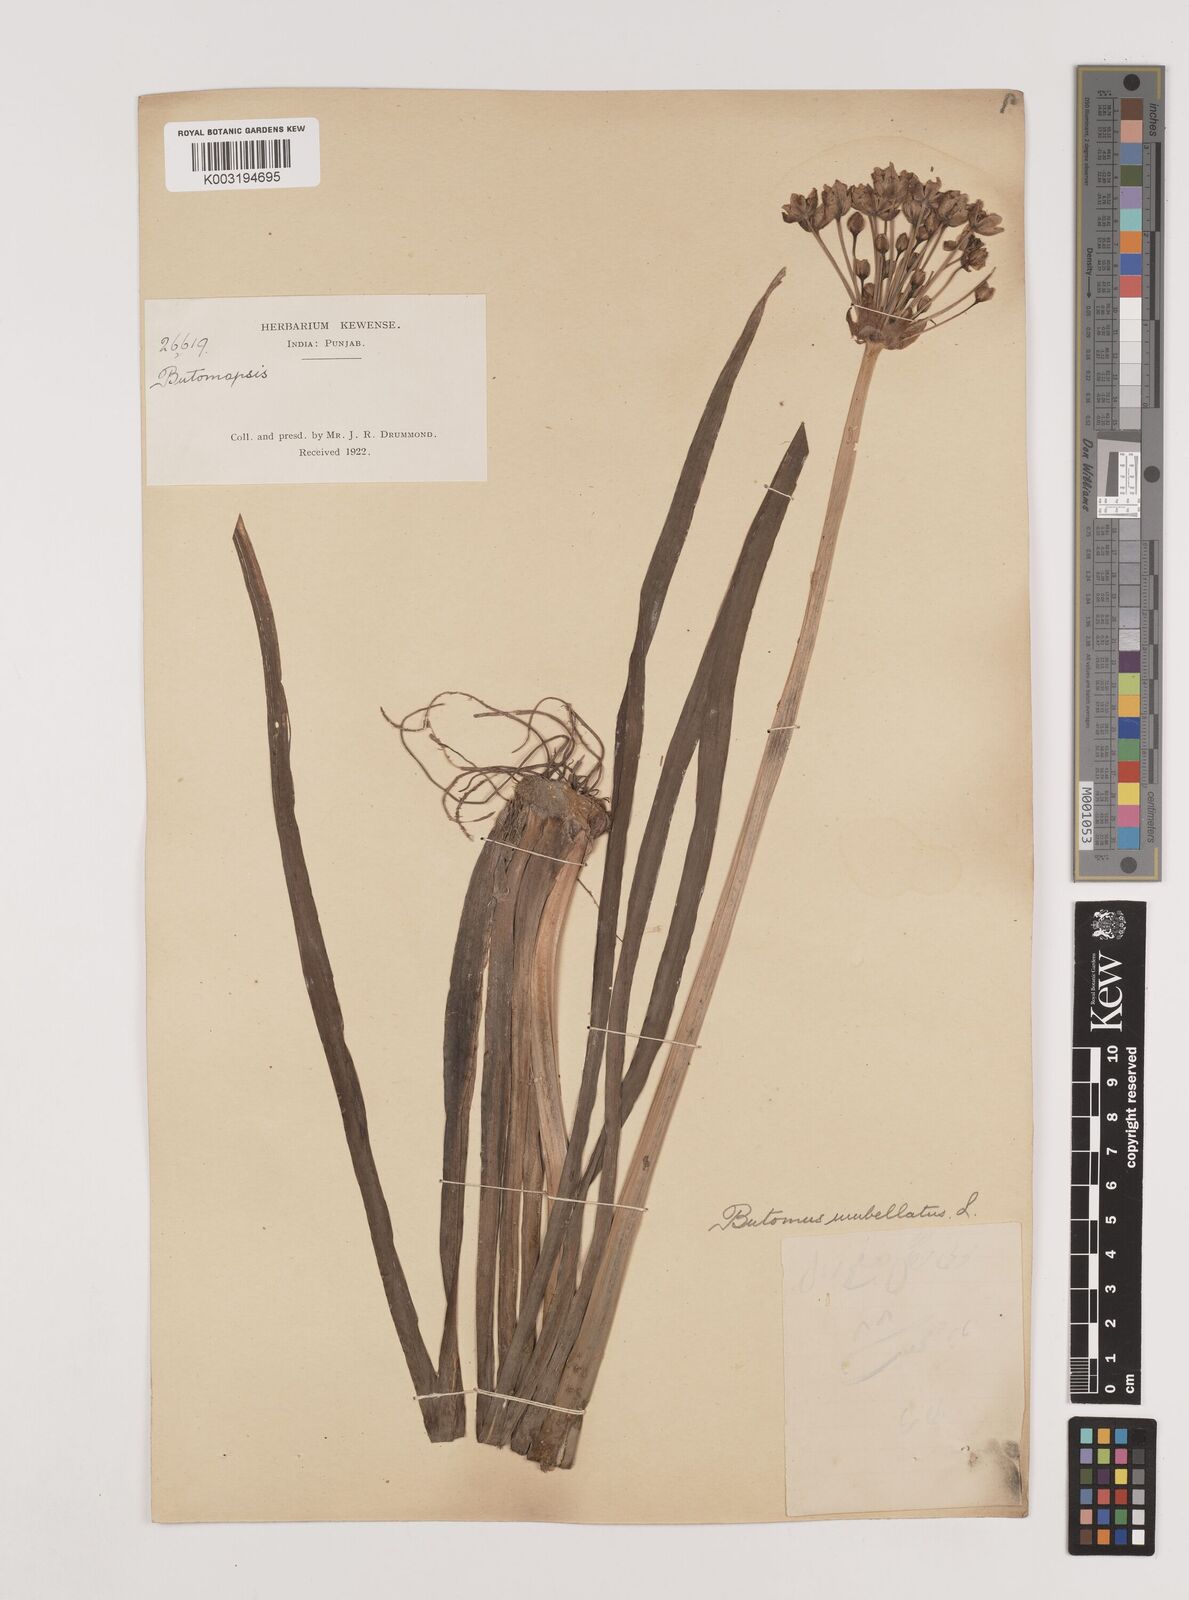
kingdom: Plantae
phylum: Tracheophyta
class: Liliopsida
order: Alismatales
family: Butomaceae
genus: Butomus
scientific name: Butomus umbellatus
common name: Flowering-rush
